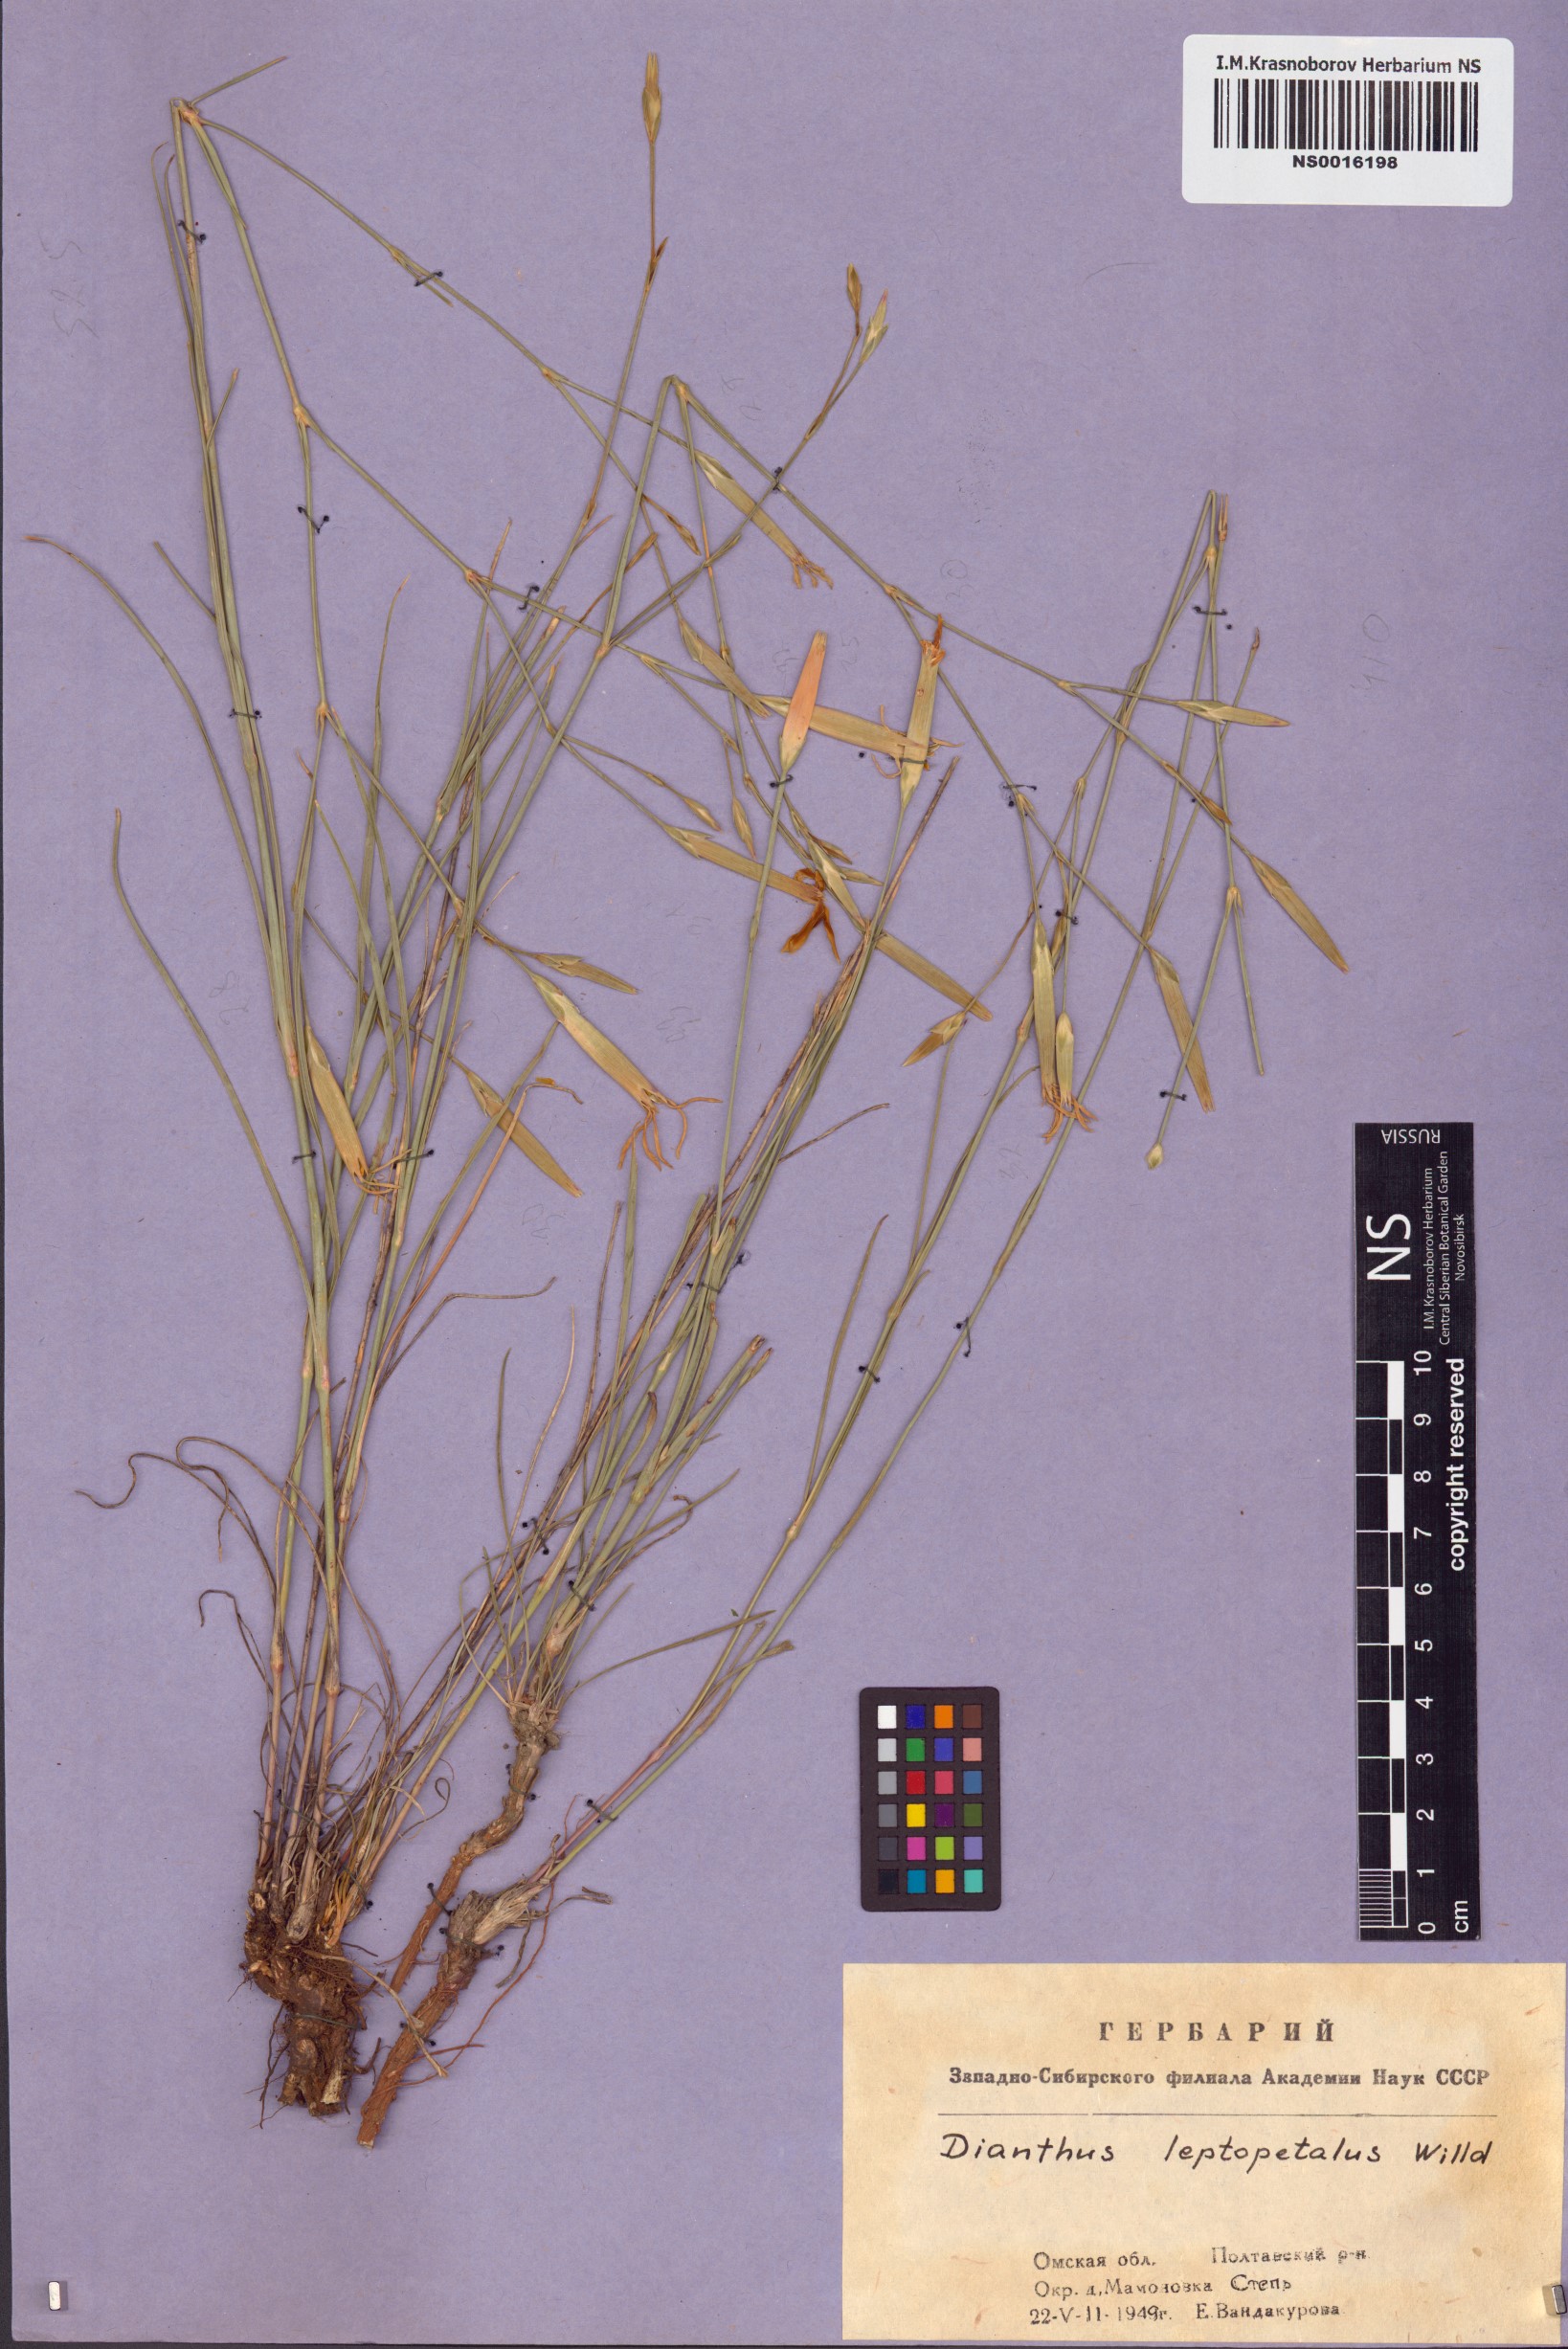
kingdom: Plantae
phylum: Tracheophyta
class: Magnoliopsida
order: Caryophyllales
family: Caryophyllaceae
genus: Dianthus
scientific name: Dianthus leptopetalus
